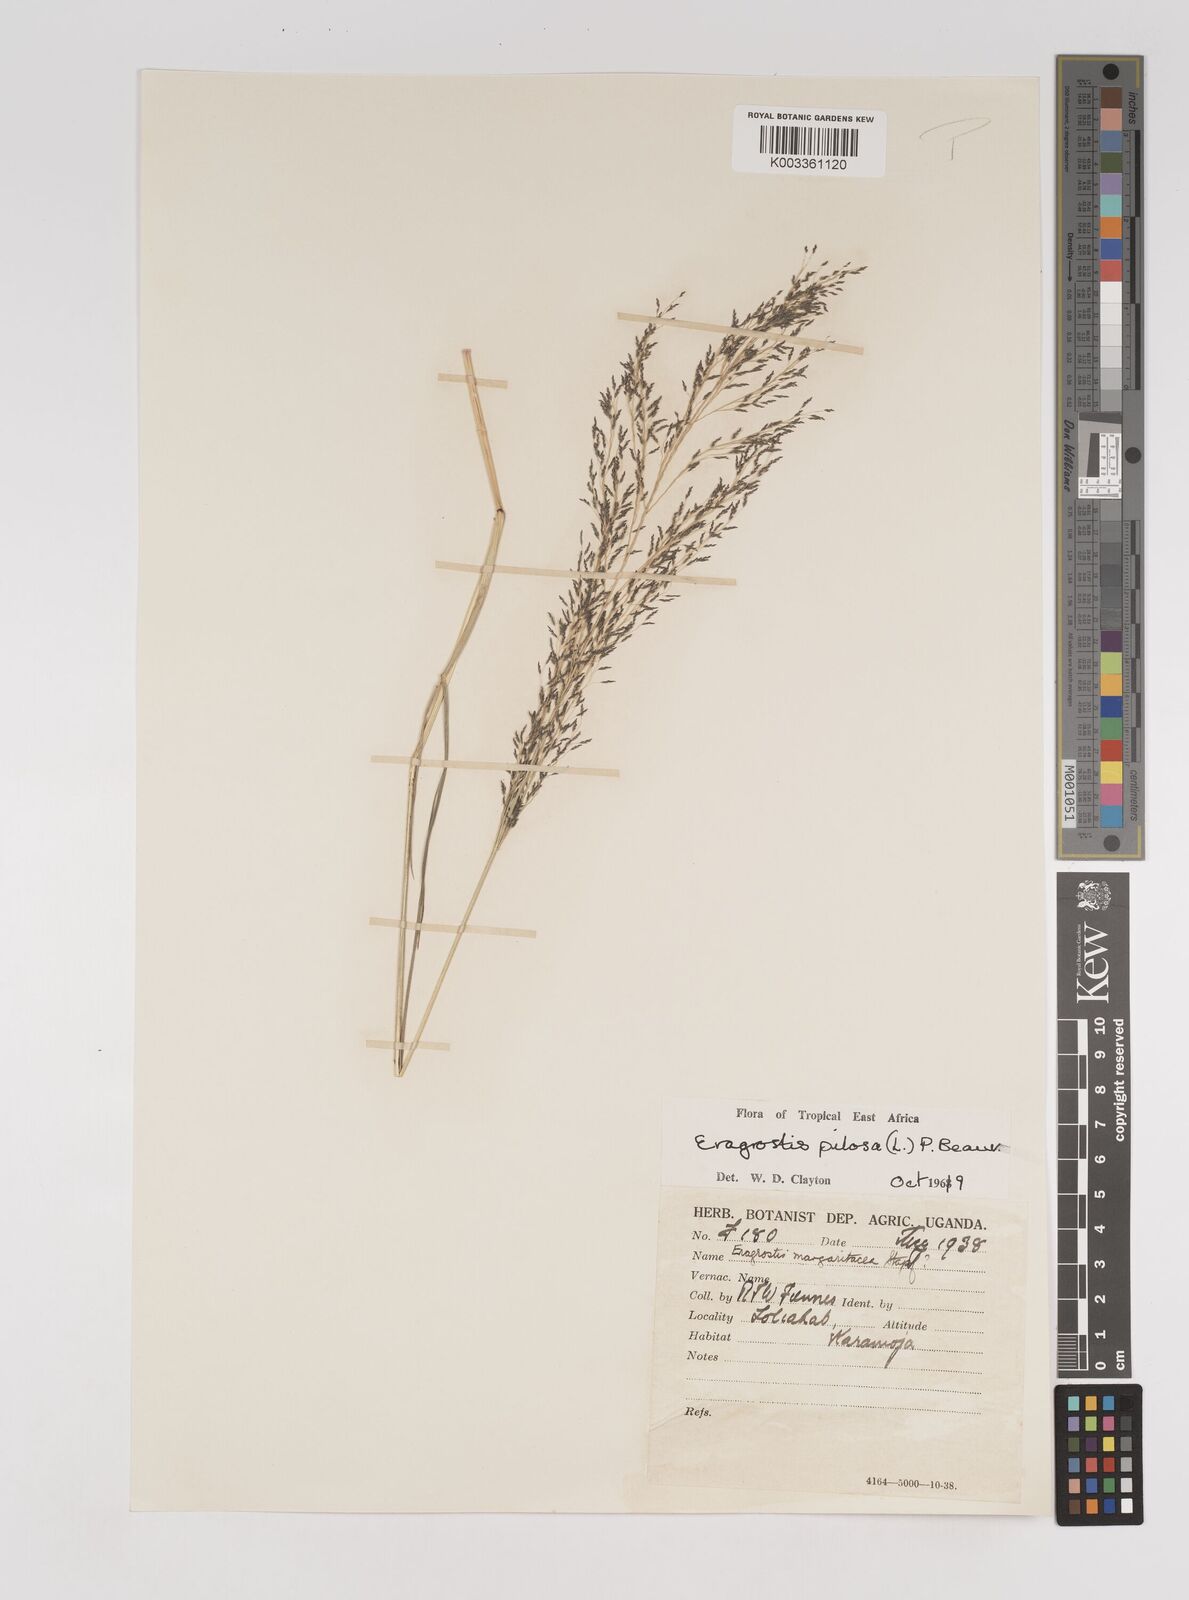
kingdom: Plantae
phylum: Tracheophyta
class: Liliopsida
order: Poales
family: Poaceae
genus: Eragrostis
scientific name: Eragrostis pilosa
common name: Indian lovegrass
